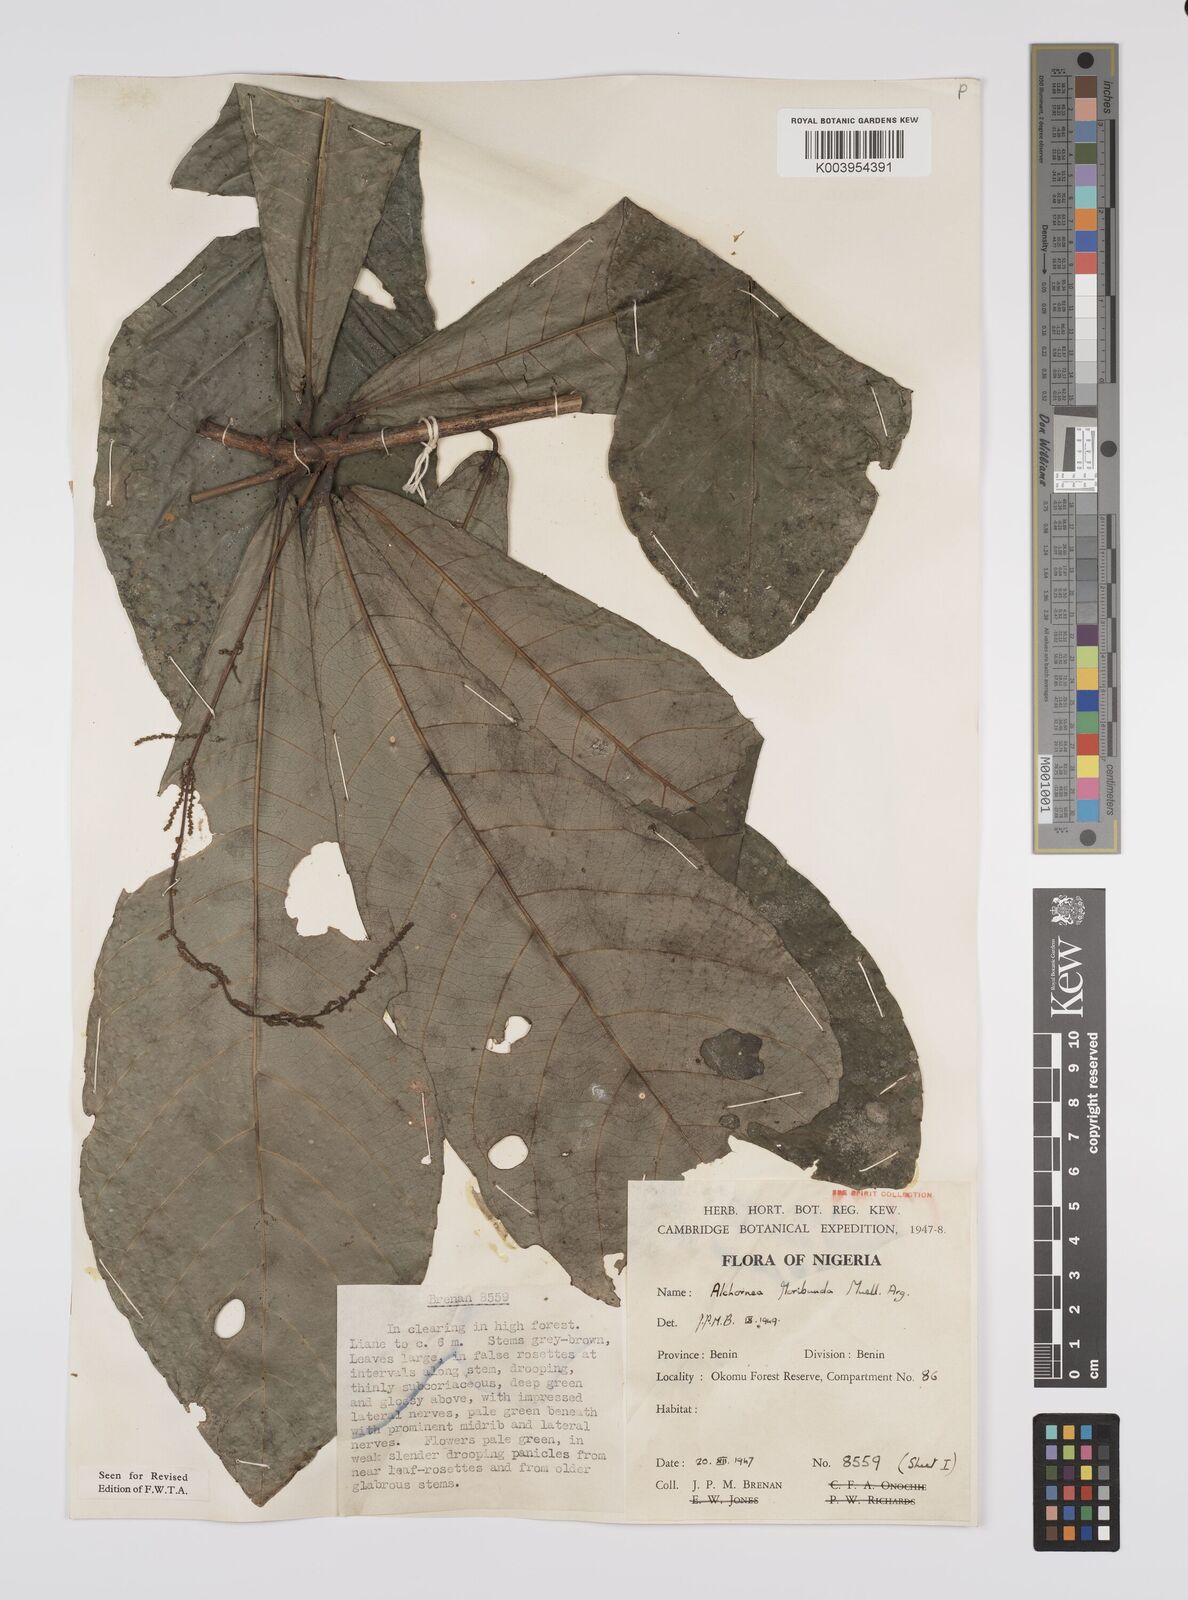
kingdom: Plantae
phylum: Tracheophyta
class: Magnoliopsida
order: Malpighiales
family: Euphorbiaceae
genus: Alchornea
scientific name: Alchornea floribunda
